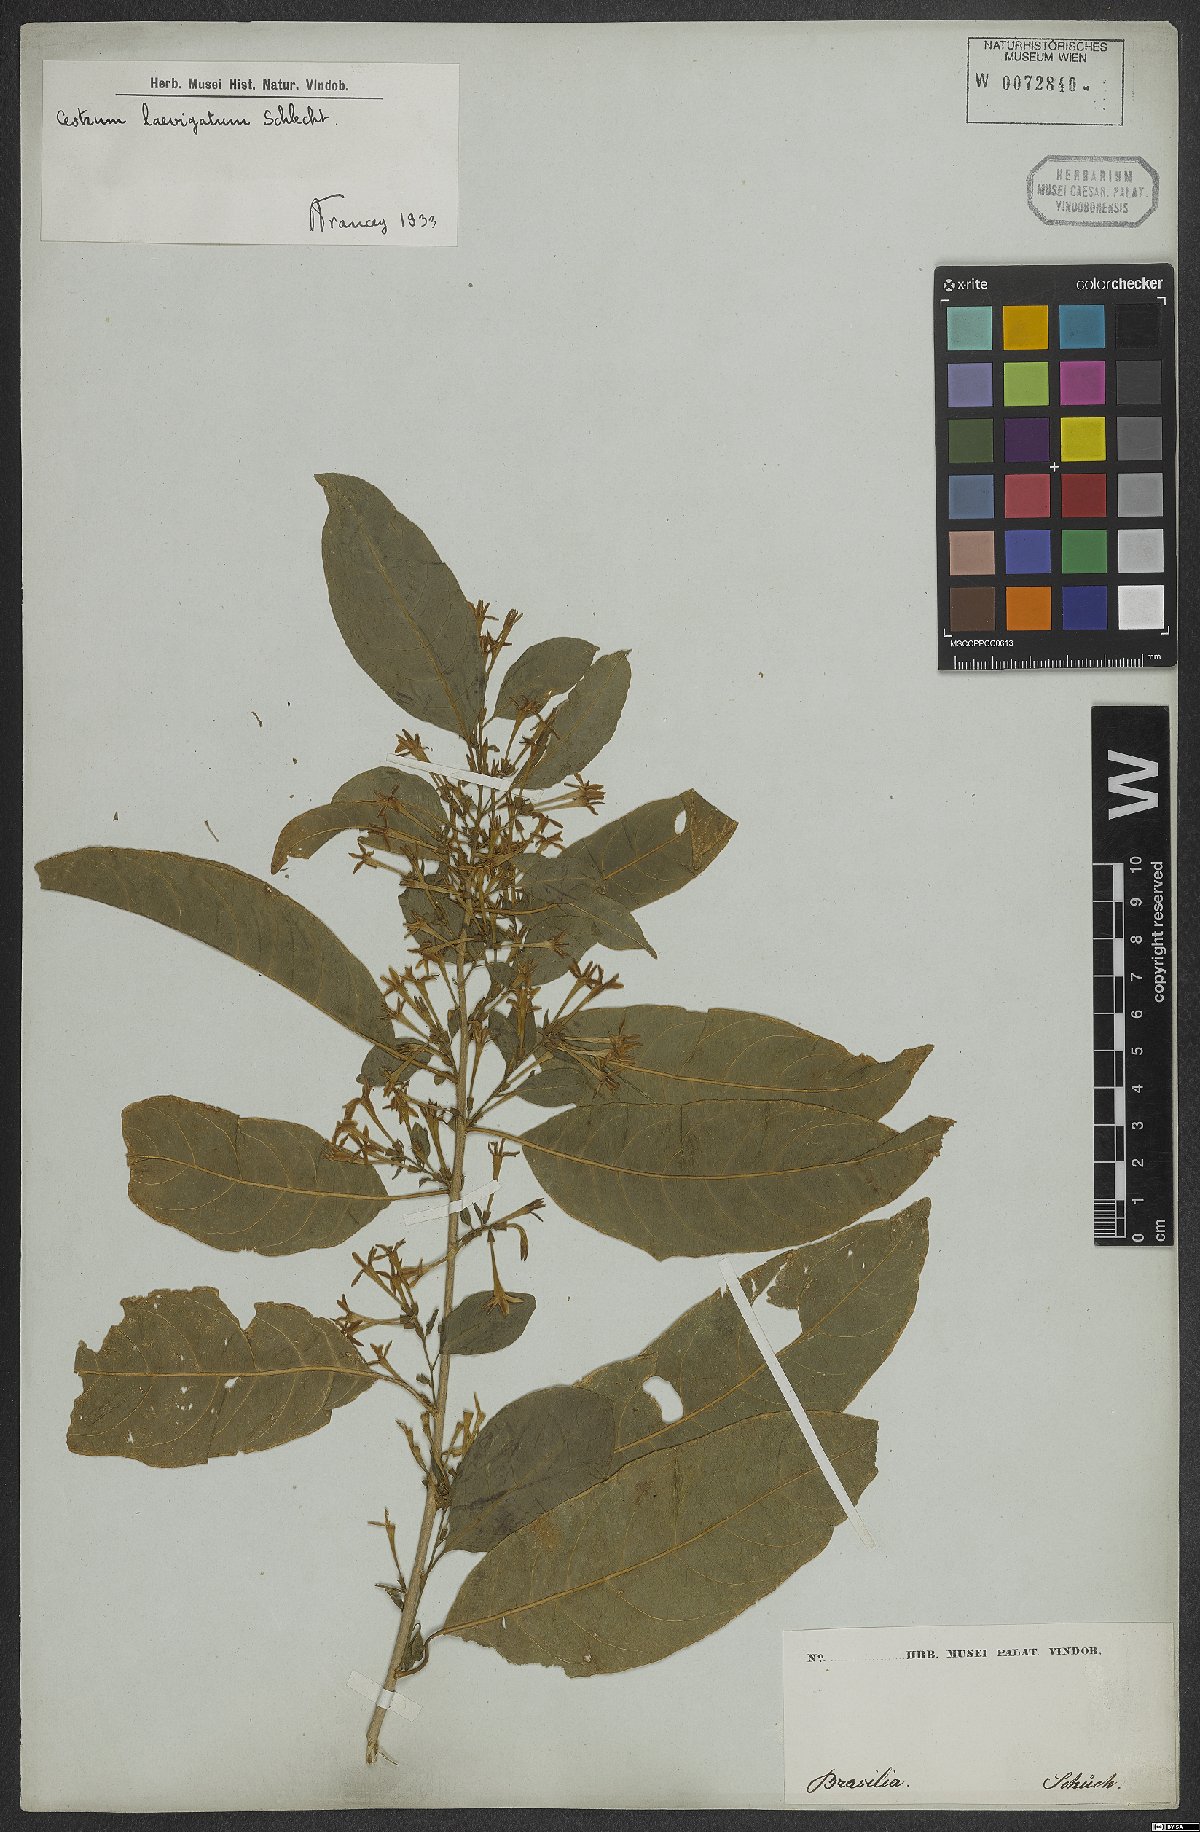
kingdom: Plantae
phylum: Tracheophyta
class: Magnoliopsida
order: Solanales
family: Solanaceae
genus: Cestrum
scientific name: Cestrum laevigatum
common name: Inkberry
